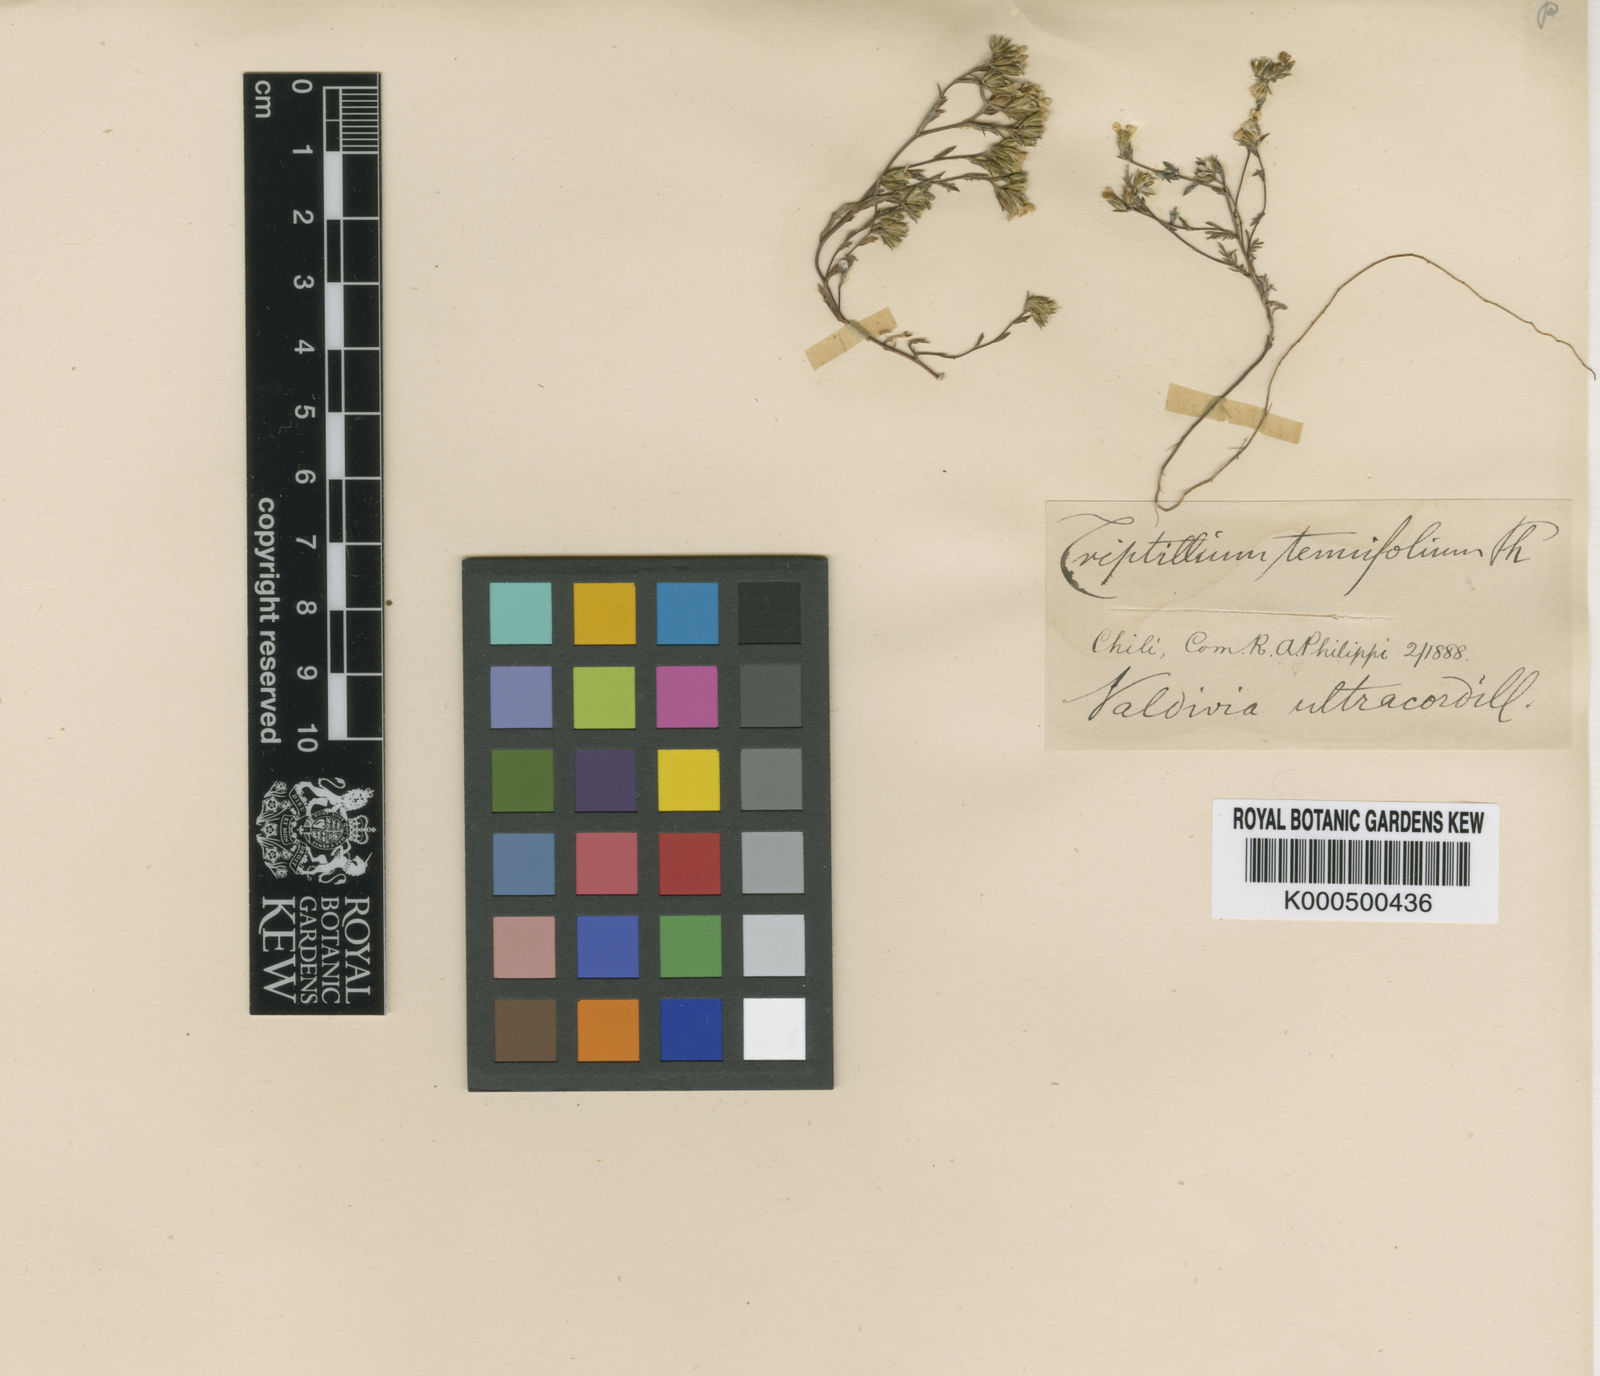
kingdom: Plantae
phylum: Tracheophyta
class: Magnoliopsida
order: Asterales
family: Asteraceae
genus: Triptilion
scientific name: Triptilion achilleae
